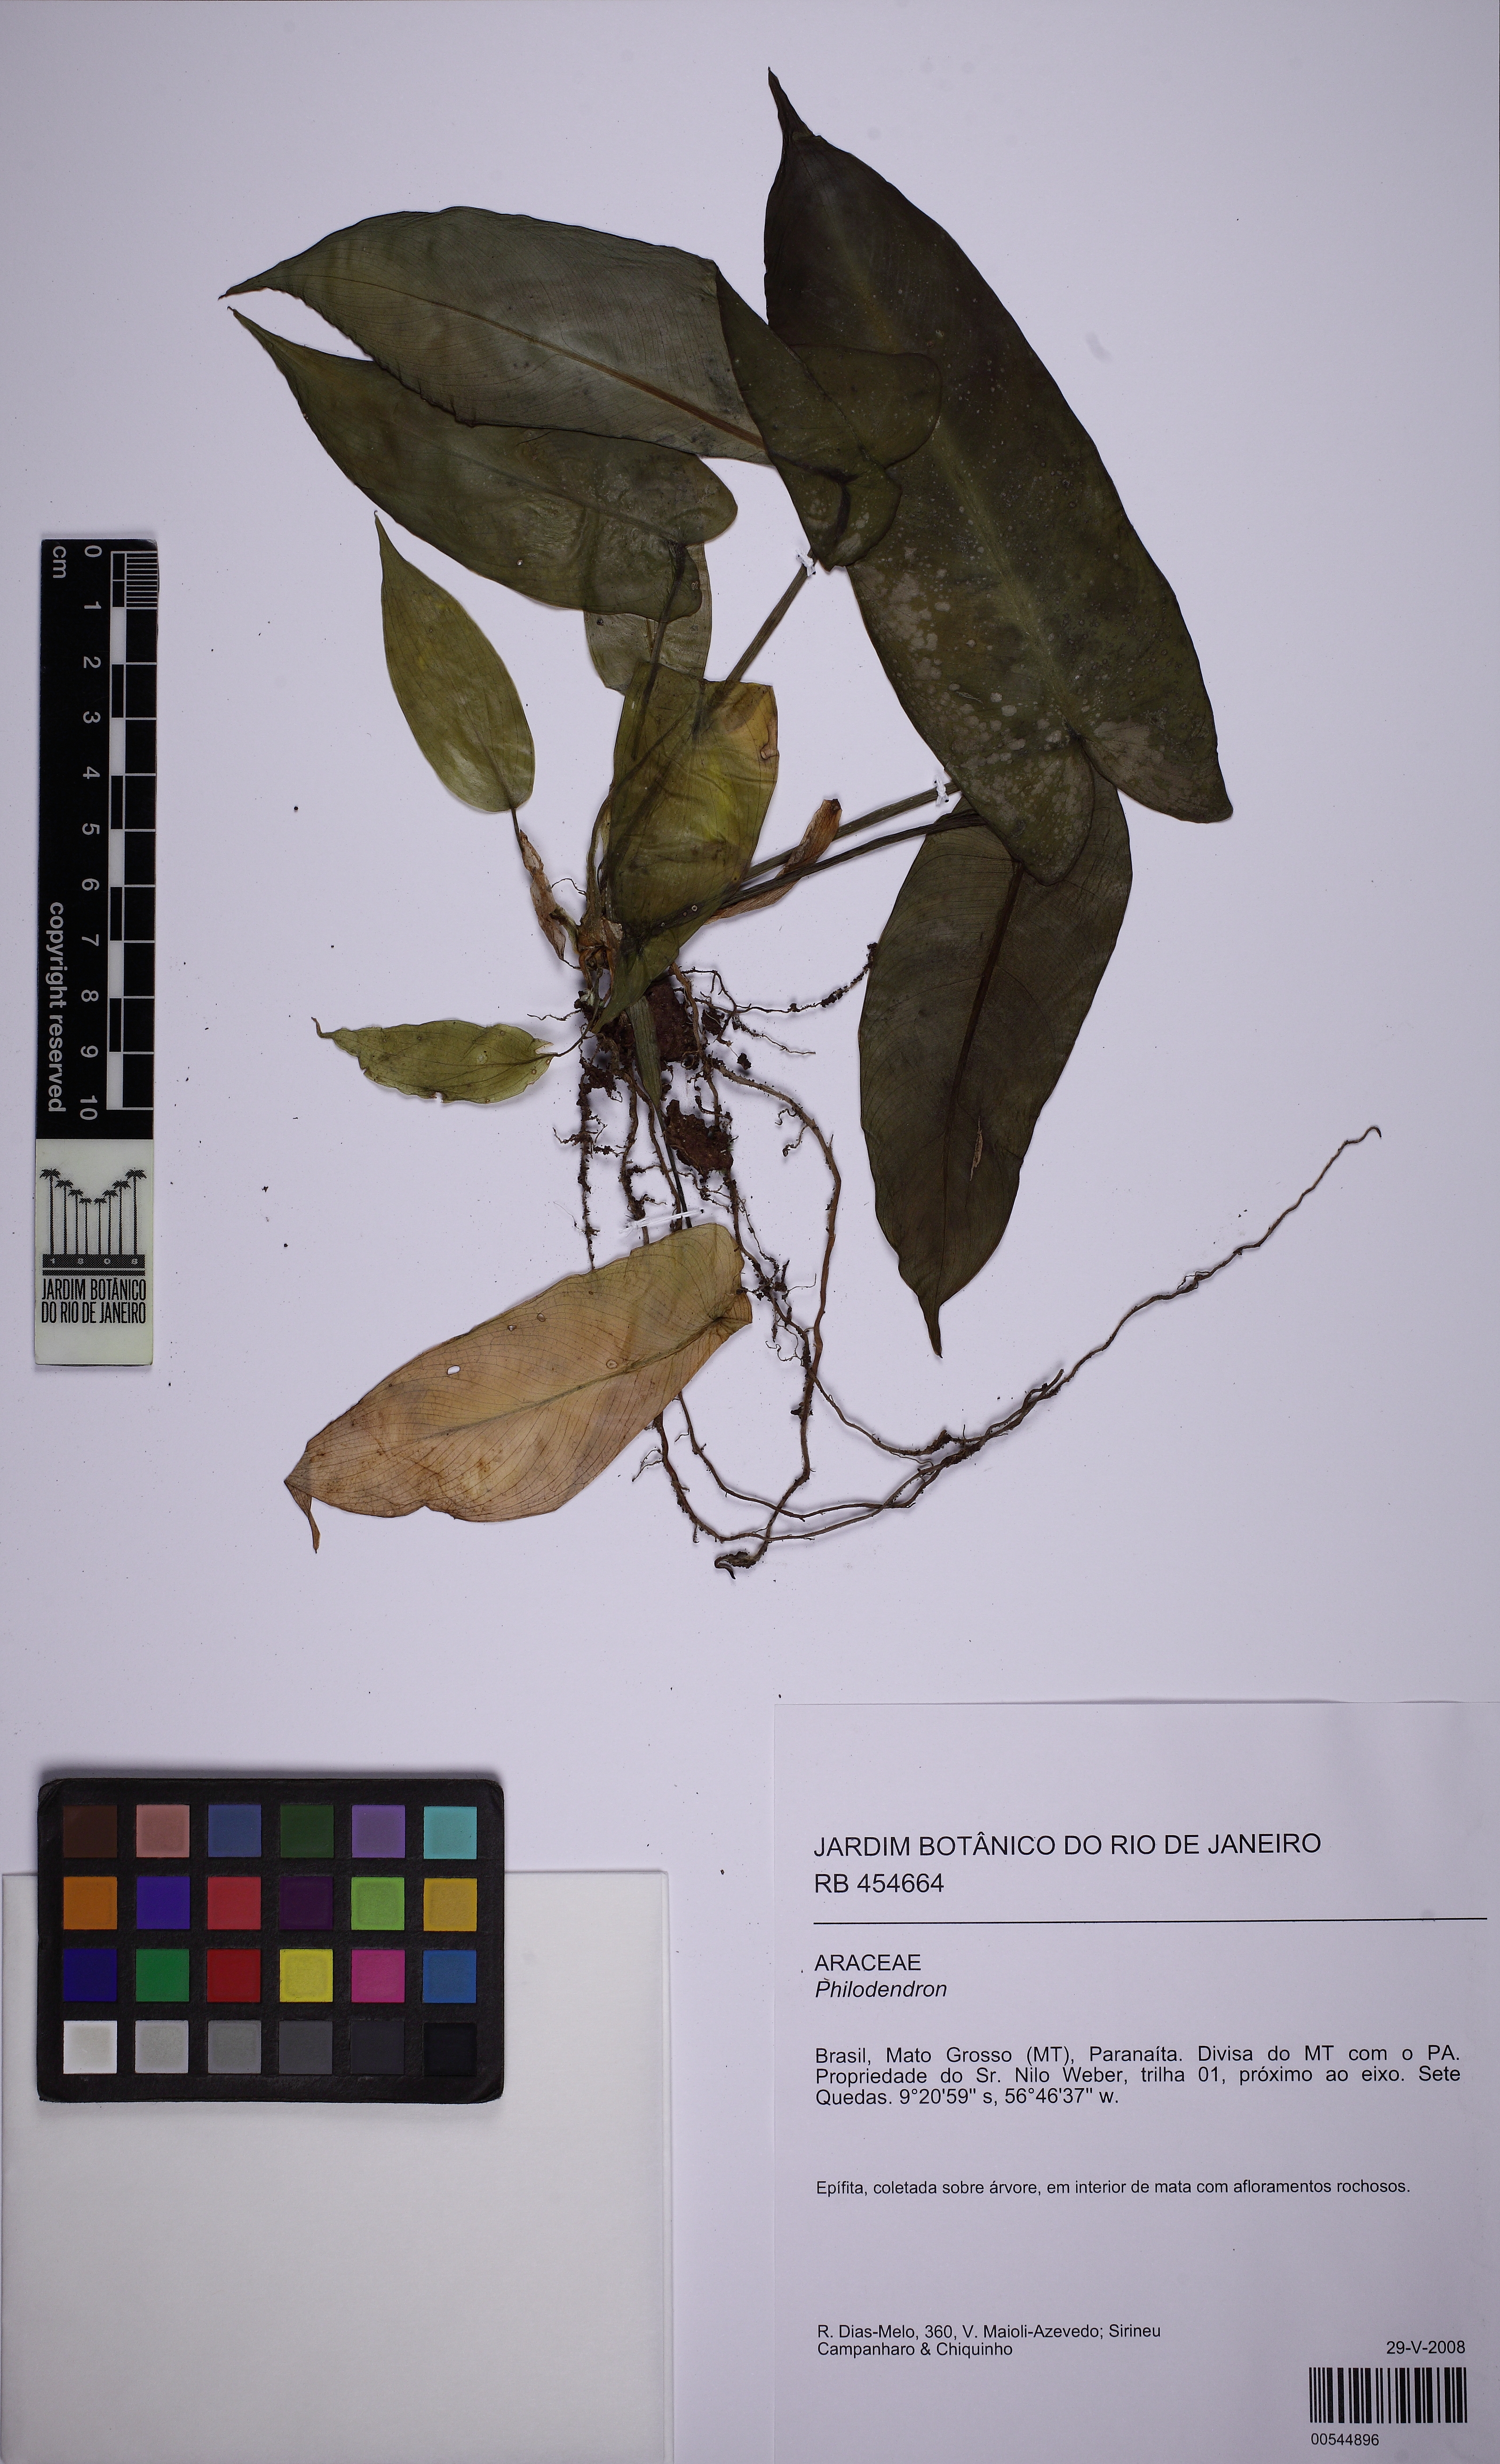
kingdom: Plantae
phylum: Tracheophyta
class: Liliopsida
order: Alismatales
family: Araceae
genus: Philodendron
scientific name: Philodendron
